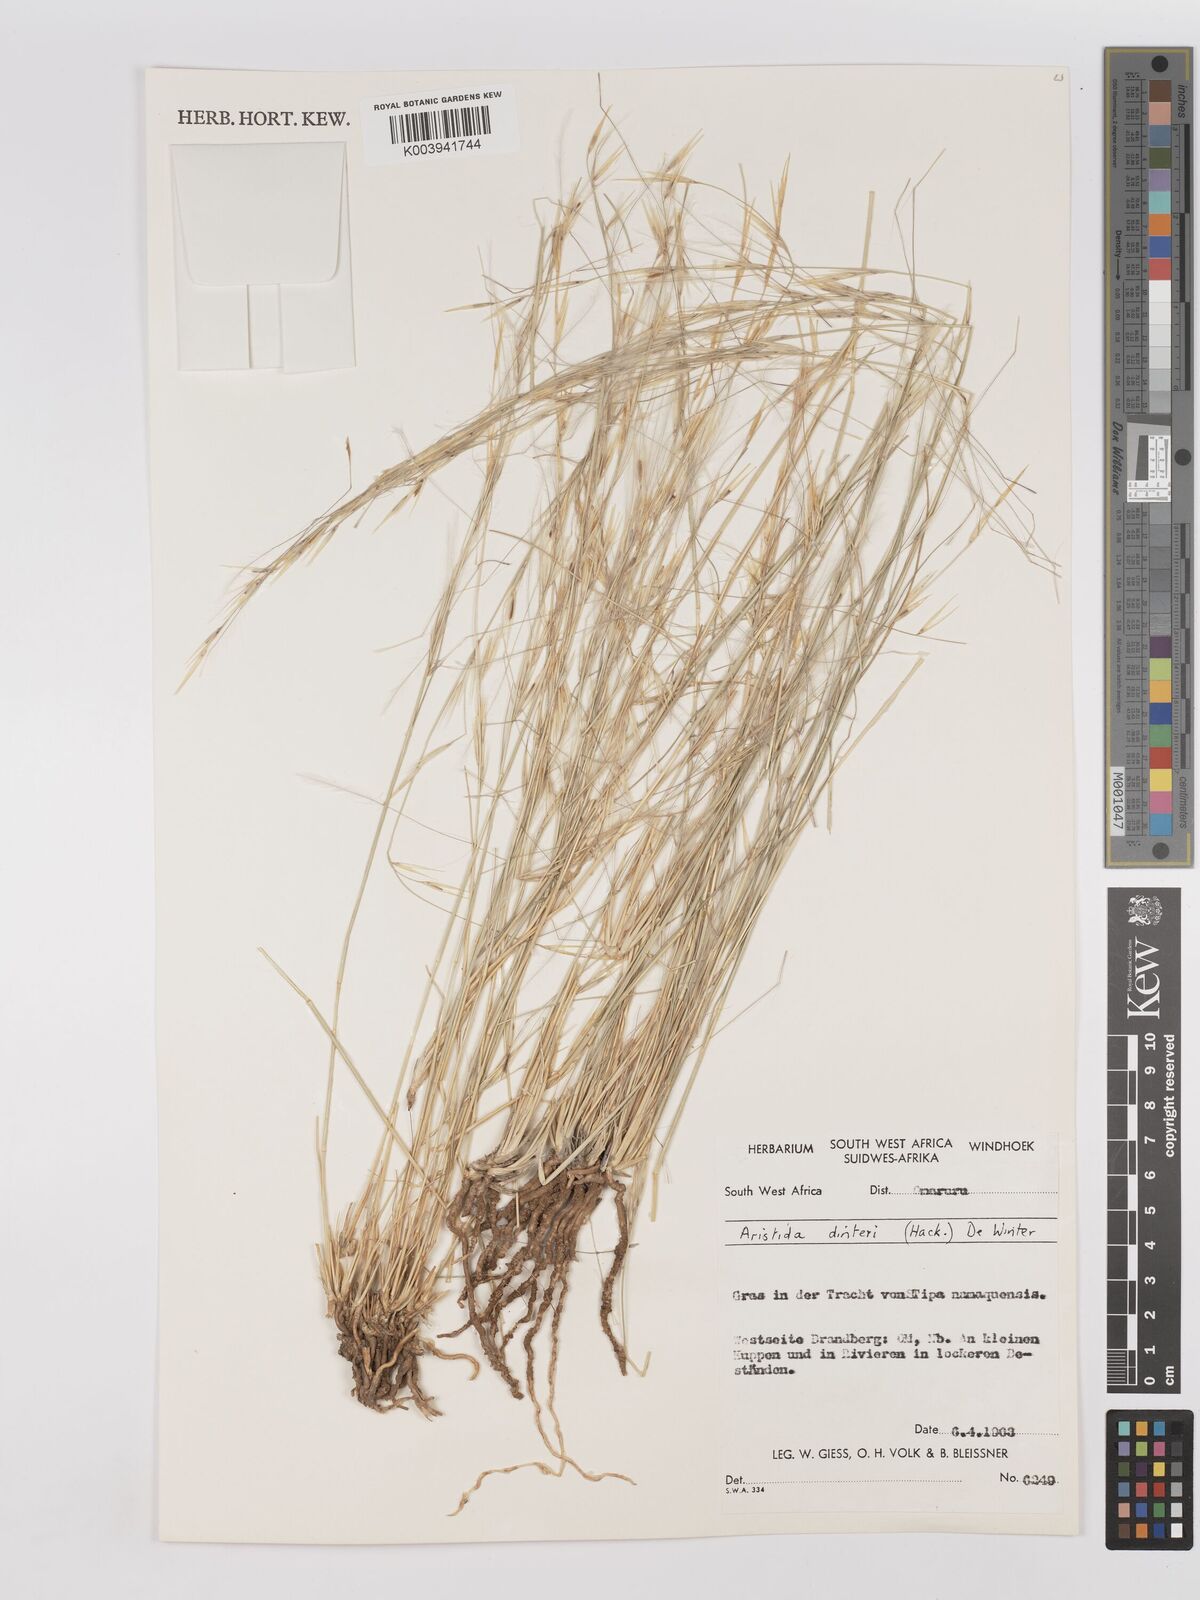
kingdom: Plantae
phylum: Tracheophyta
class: Liliopsida
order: Poales
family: Poaceae
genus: Stipagrostis
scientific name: Stipagrostis dinteri
